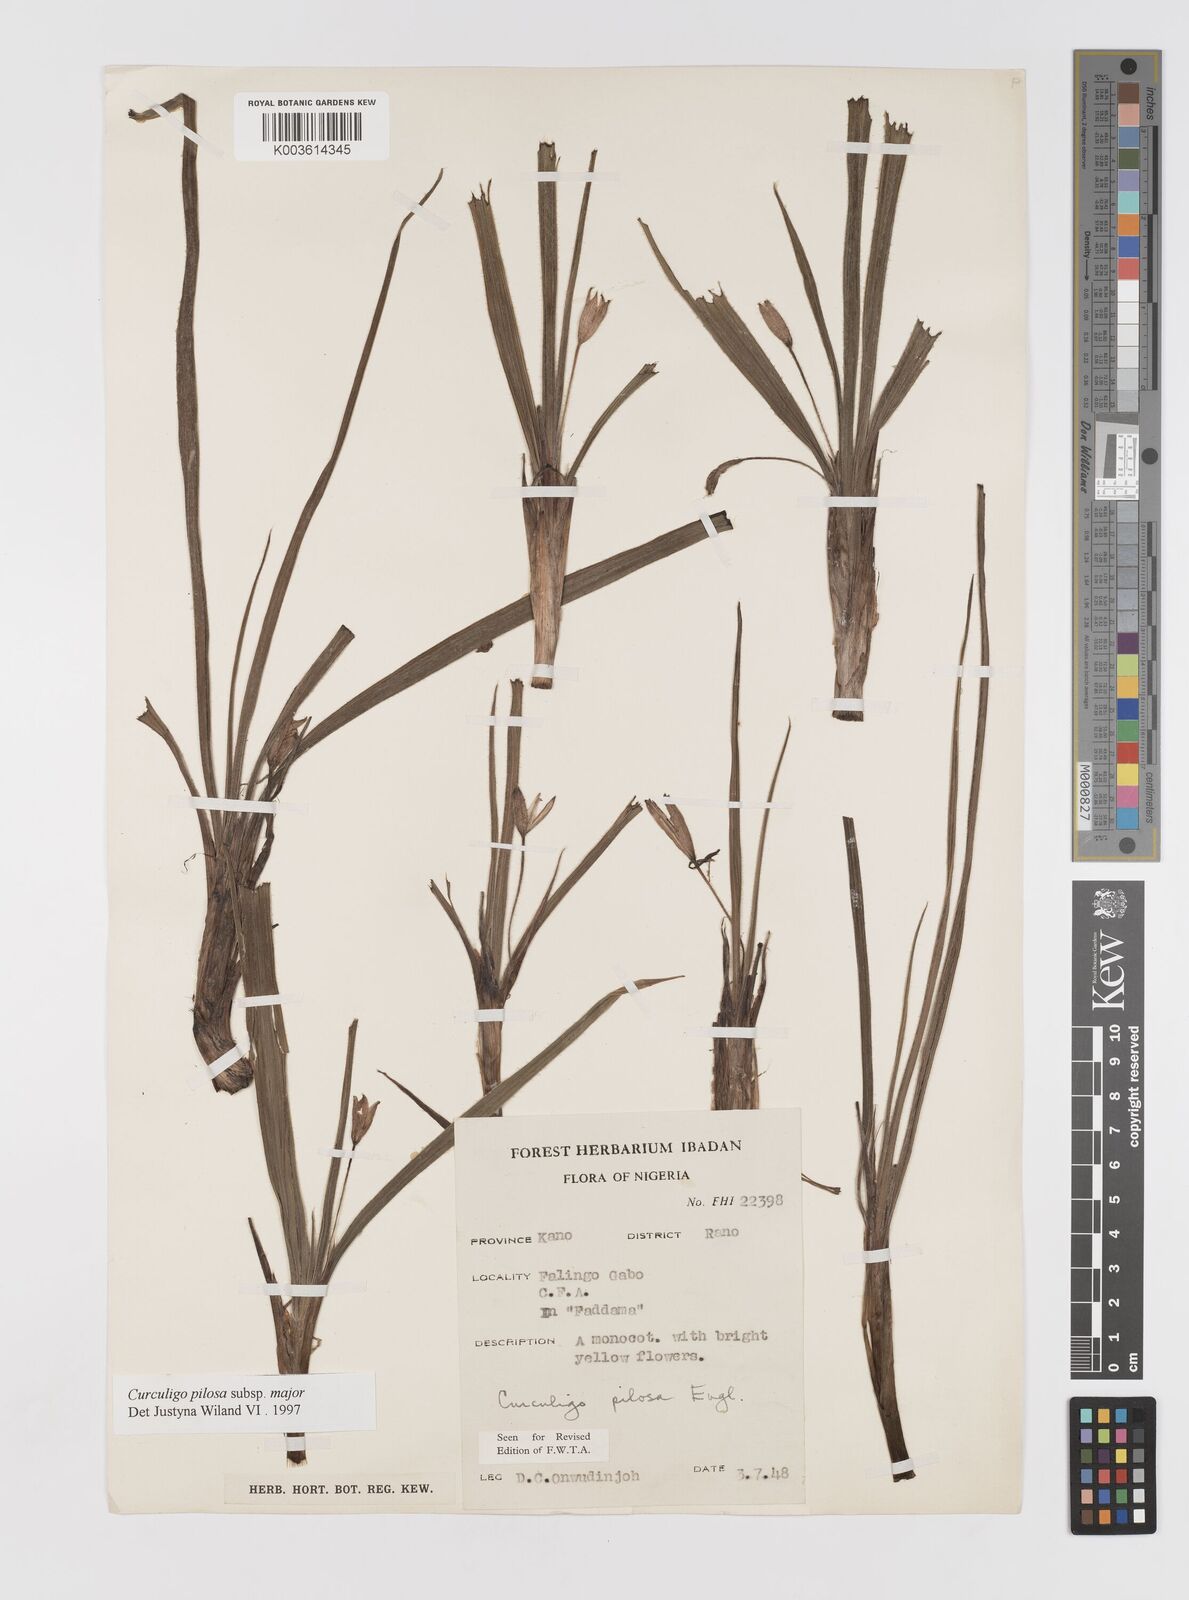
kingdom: Plantae
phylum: Tracheophyta
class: Liliopsida
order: Asparagales
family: Hypoxidaceae
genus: Curculigo
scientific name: Curculigo pilosa
